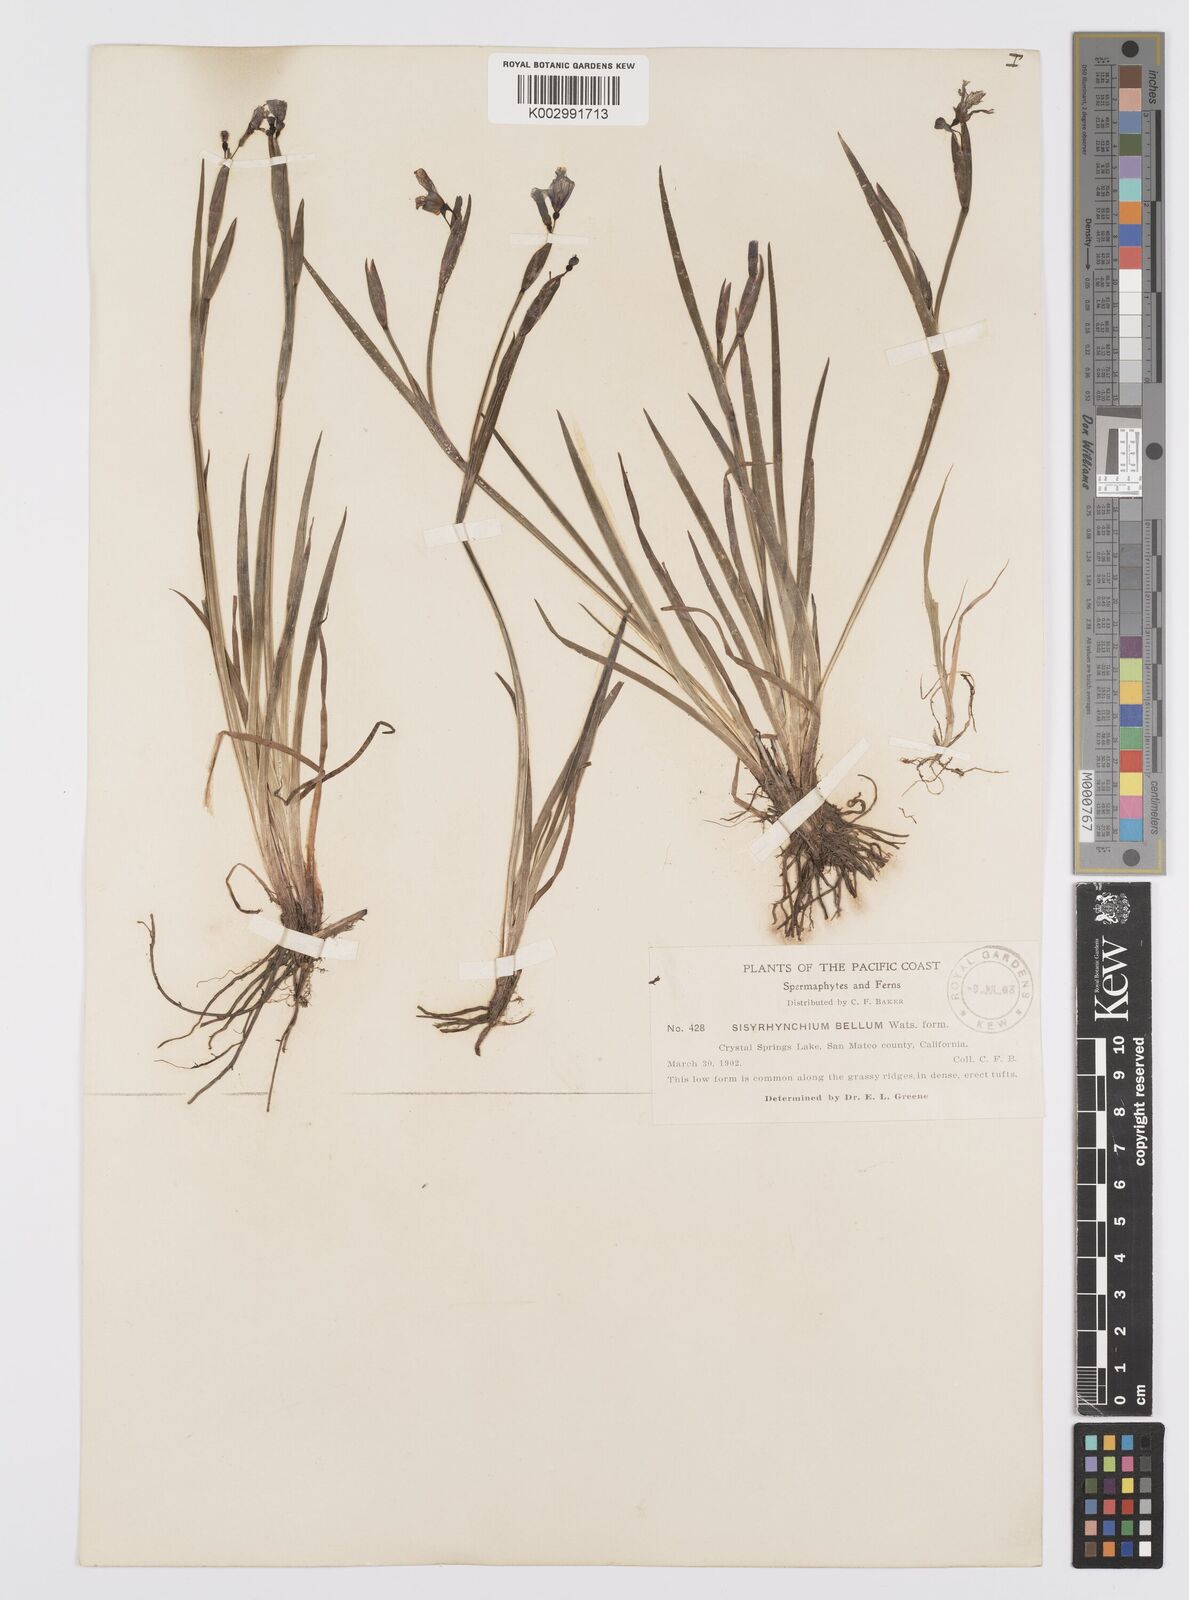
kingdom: Plantae
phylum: Tracheophyta
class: Liliopsida
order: Asparagales
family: Iridaceae
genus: Sisyrinchium
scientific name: Sisyrinchium bellum
